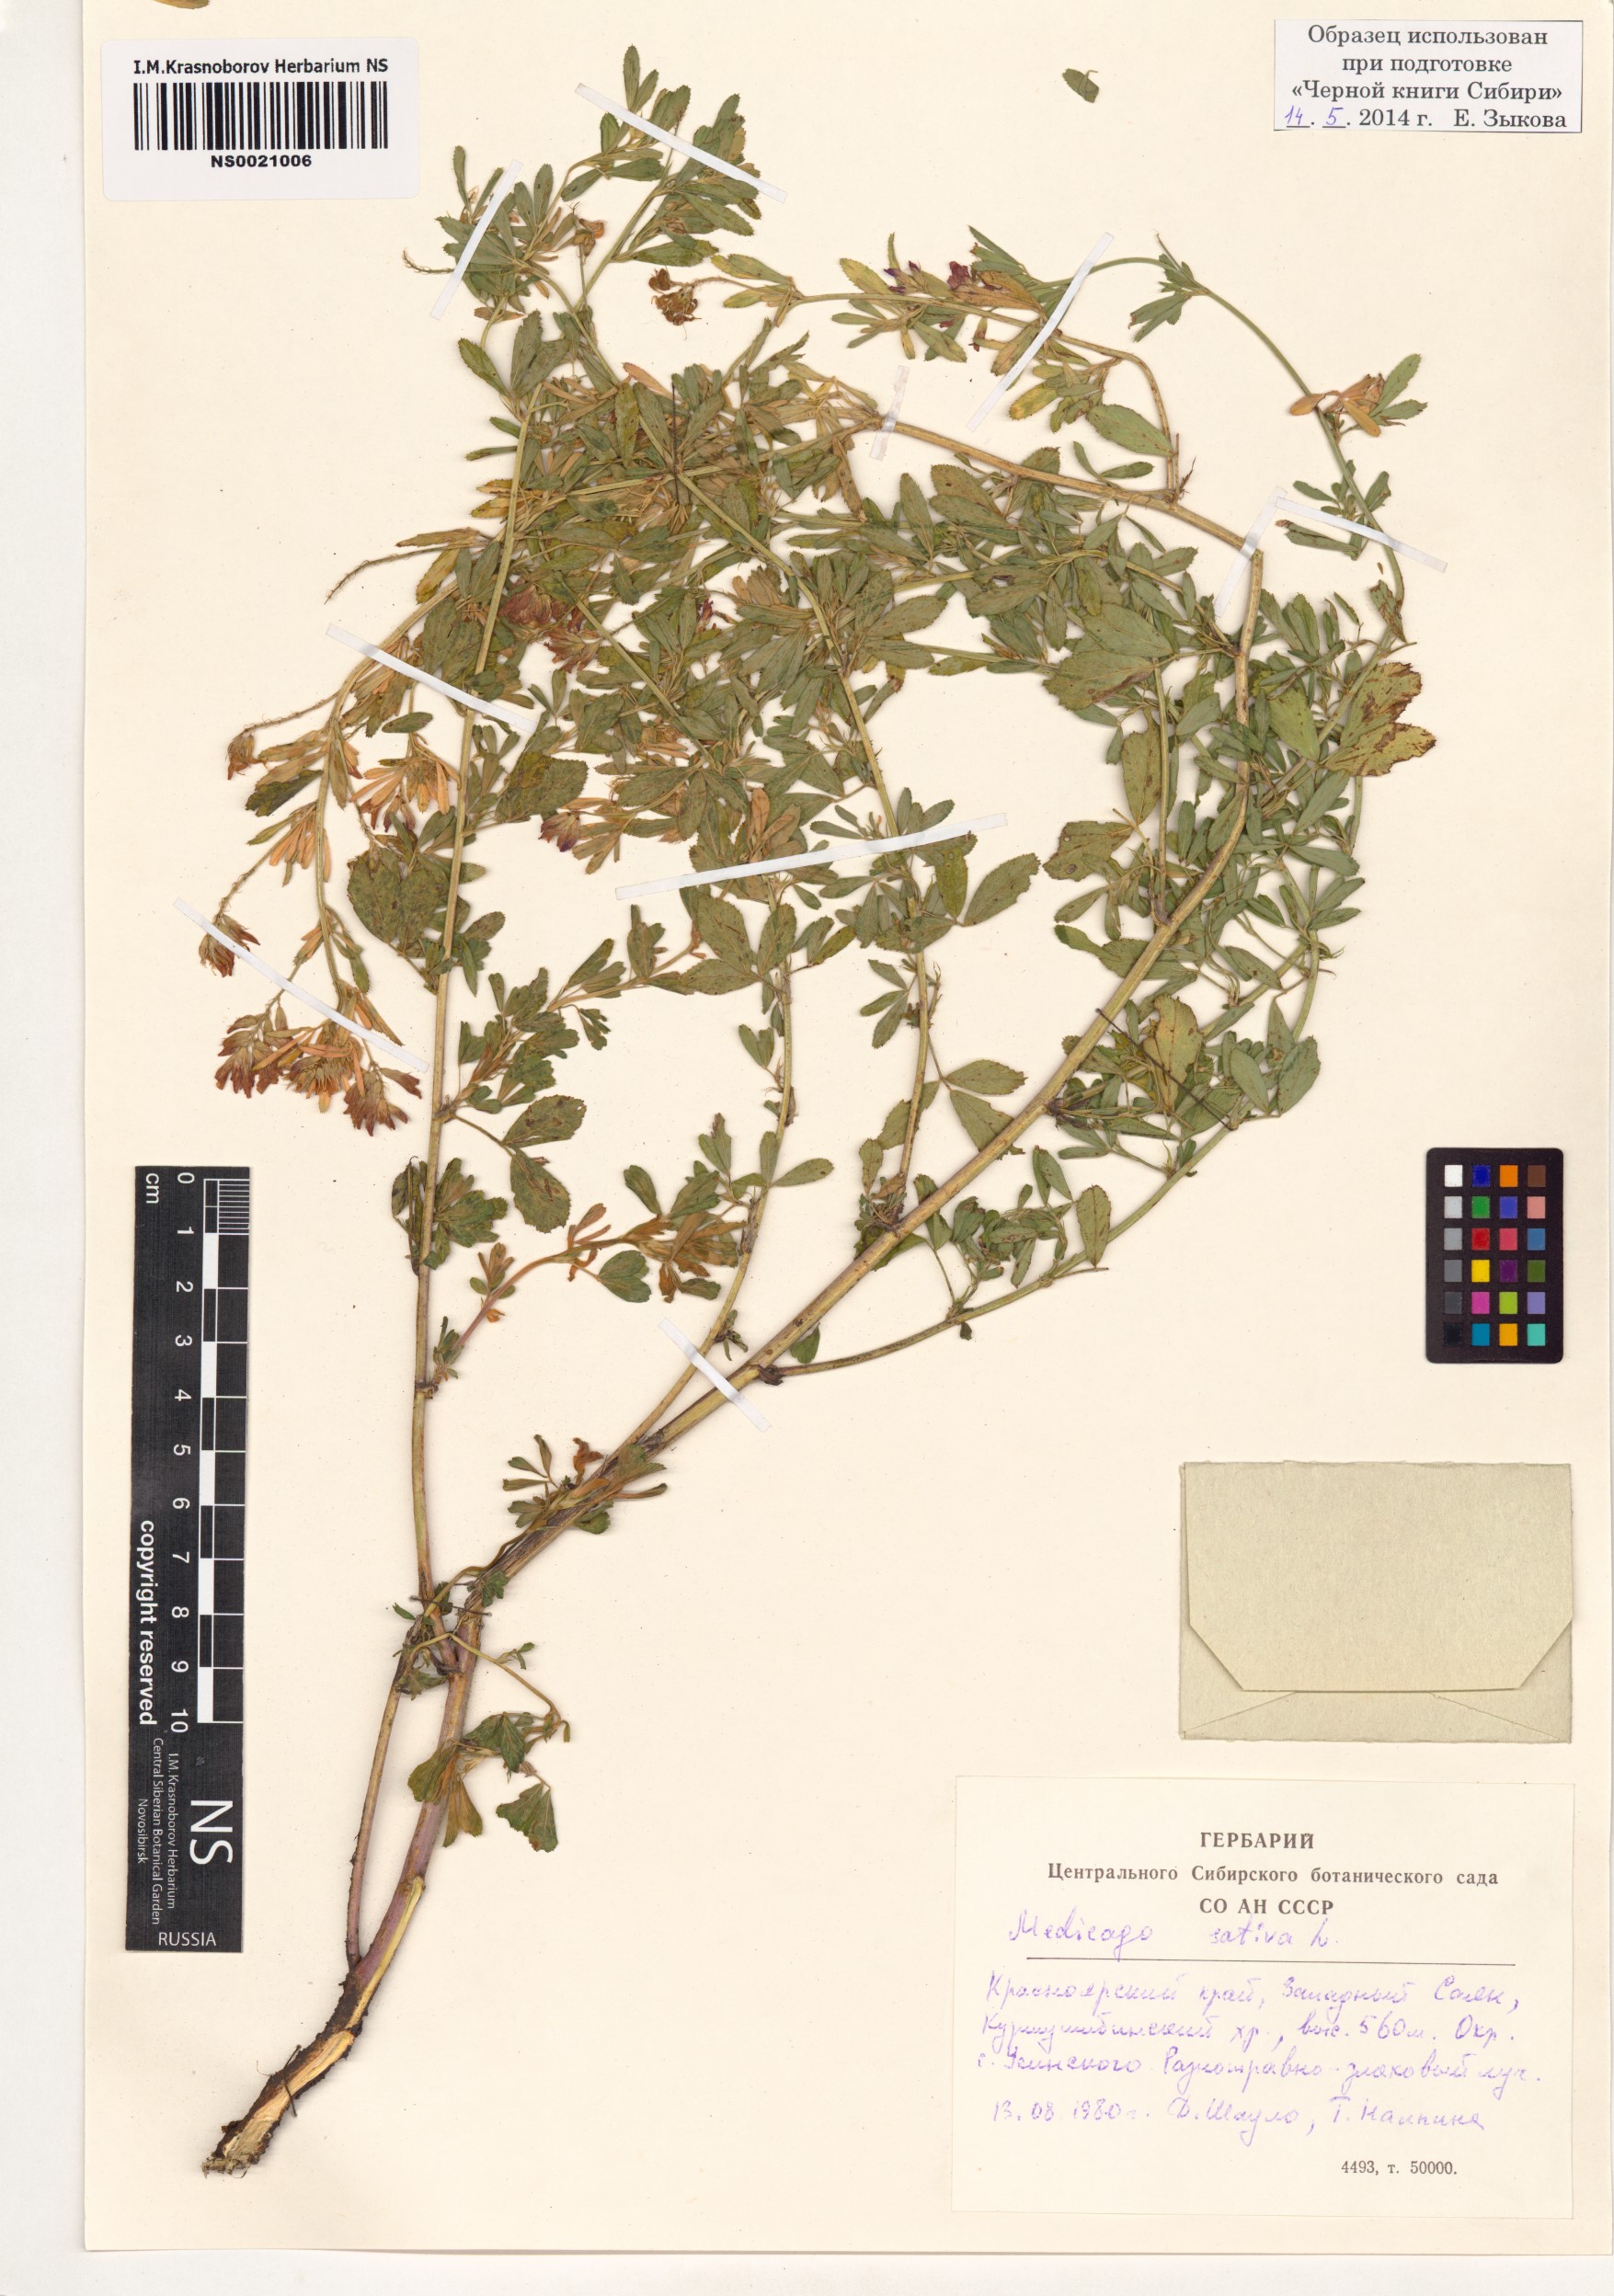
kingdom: Plantae
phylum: Tracheophyta
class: Magnoliopsida
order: Fabales
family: Fabaceae
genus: Medicago
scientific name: Medicago sativa
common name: Alfalfa
